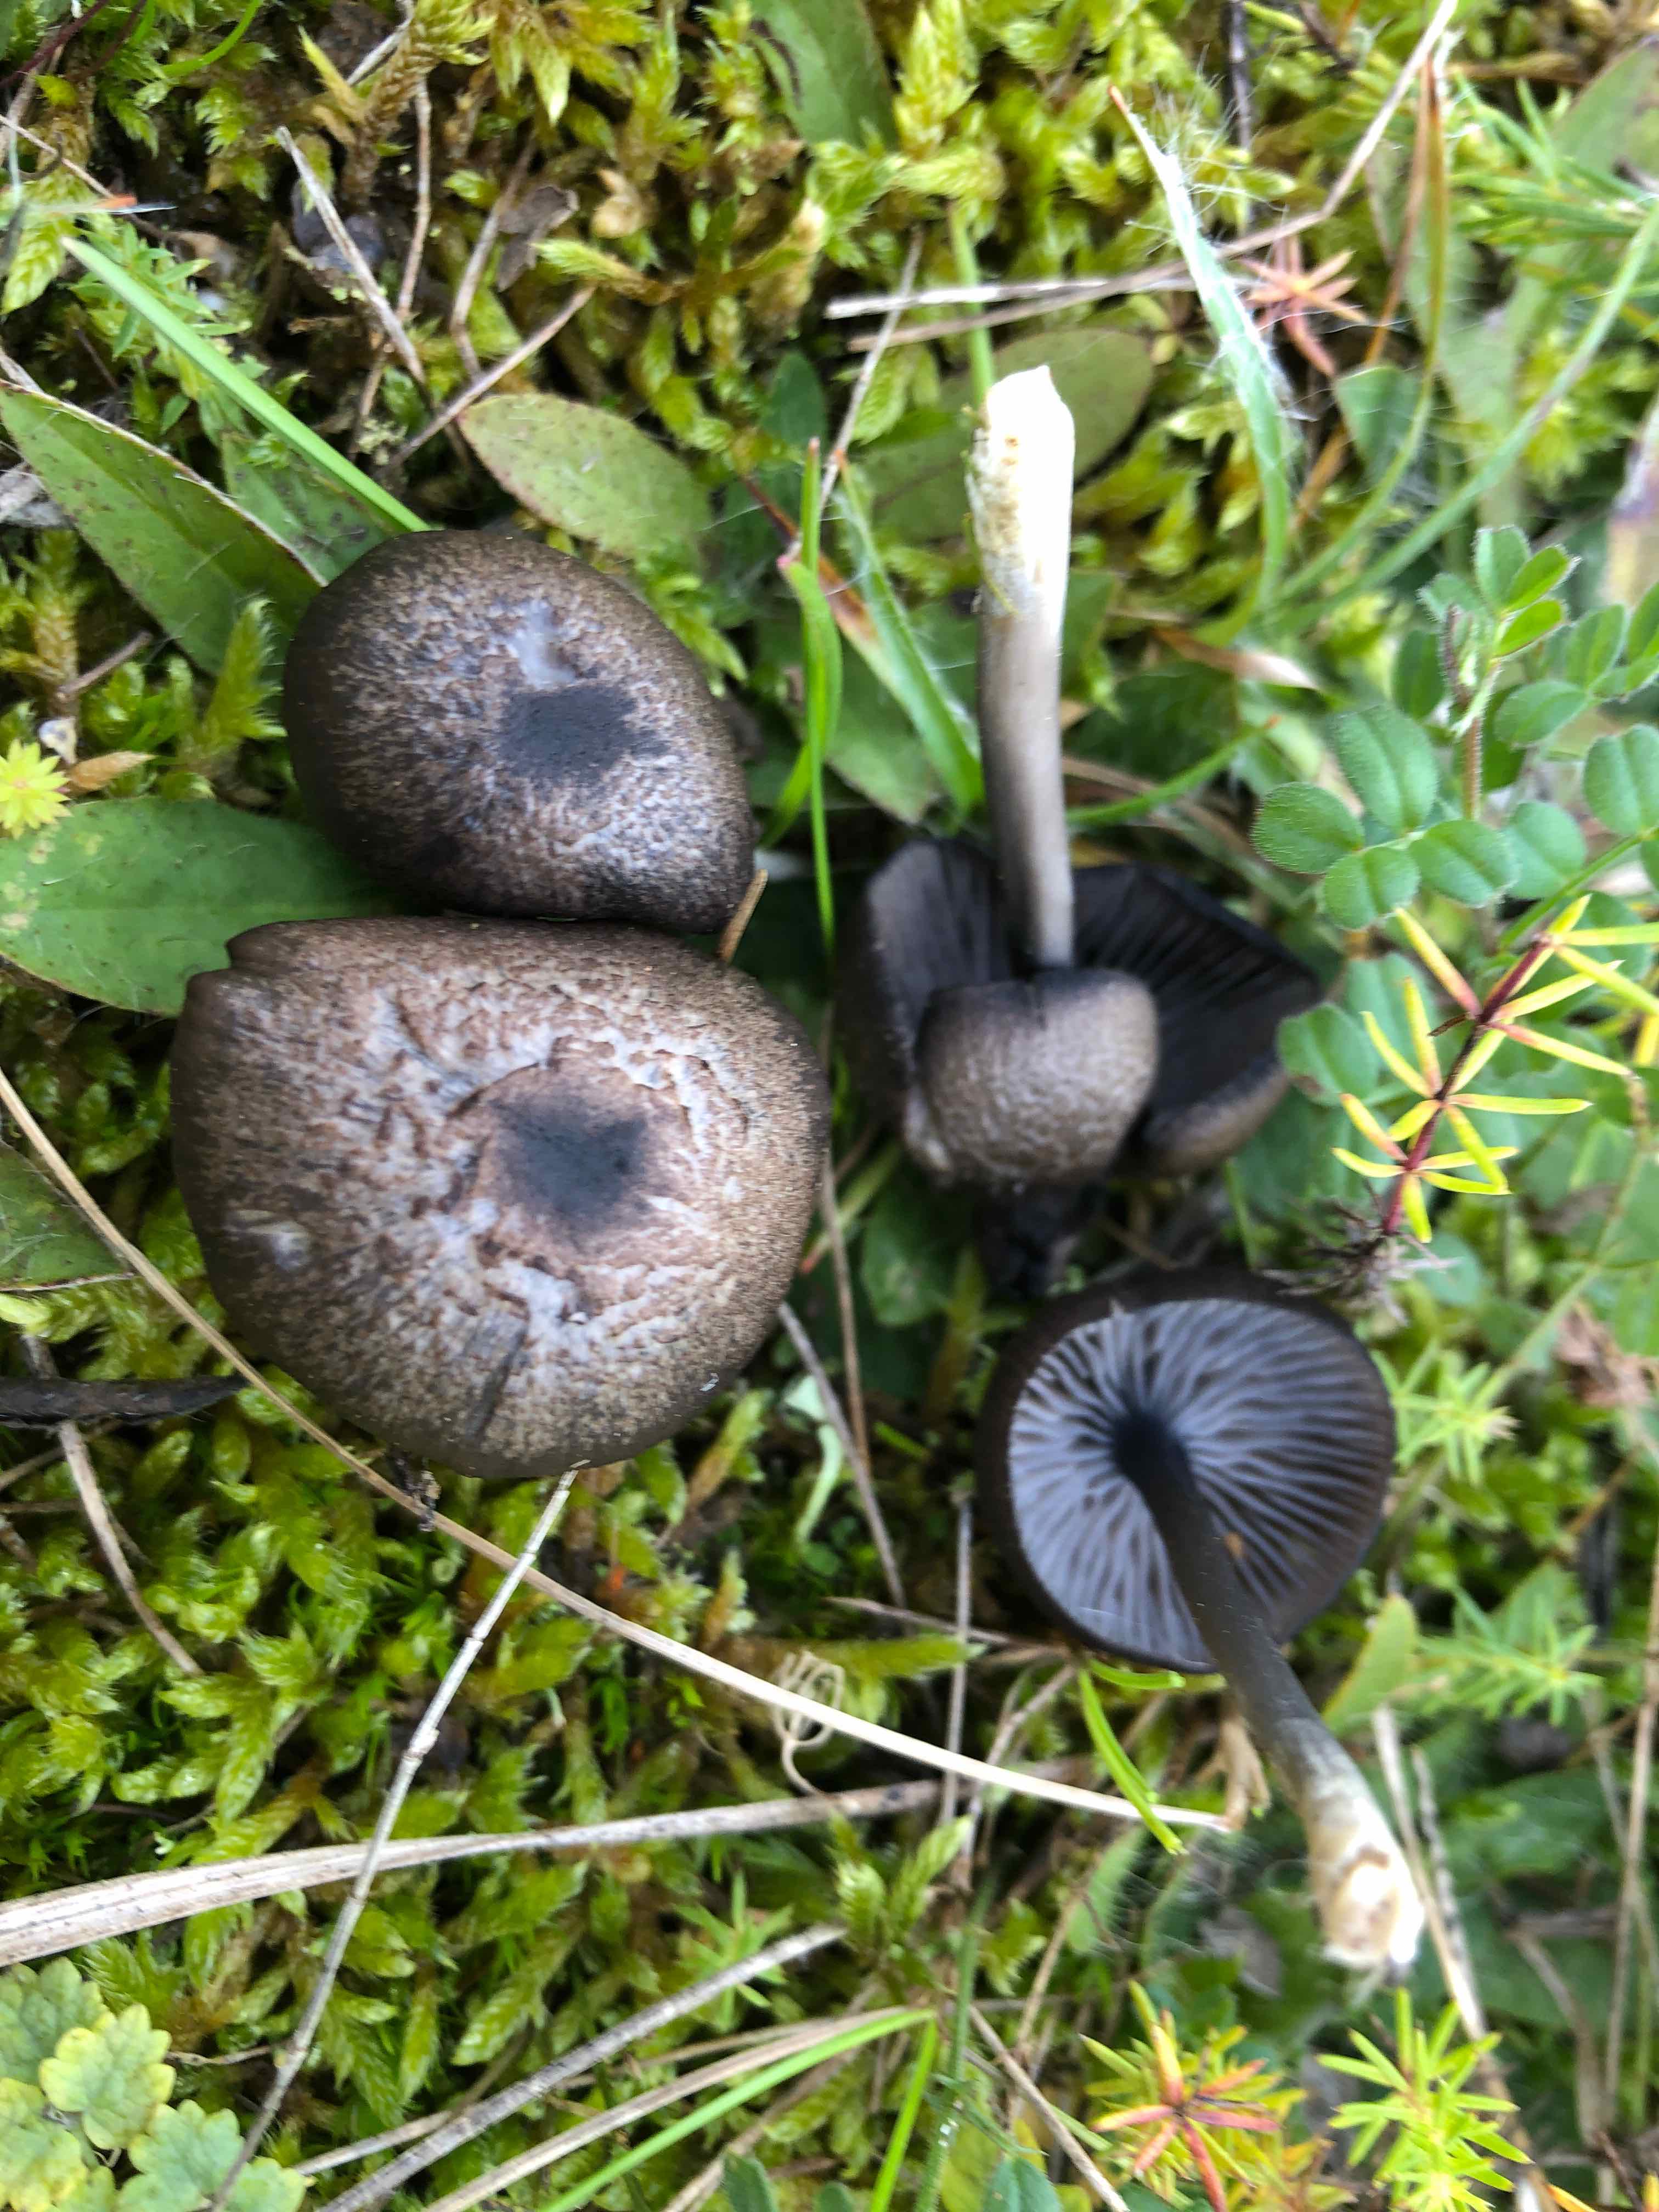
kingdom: Fungi
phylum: Basidiomycota
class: Agaricomycetes
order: Agaricales
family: Entolomataceae
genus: Entoloma
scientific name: Entoloma
